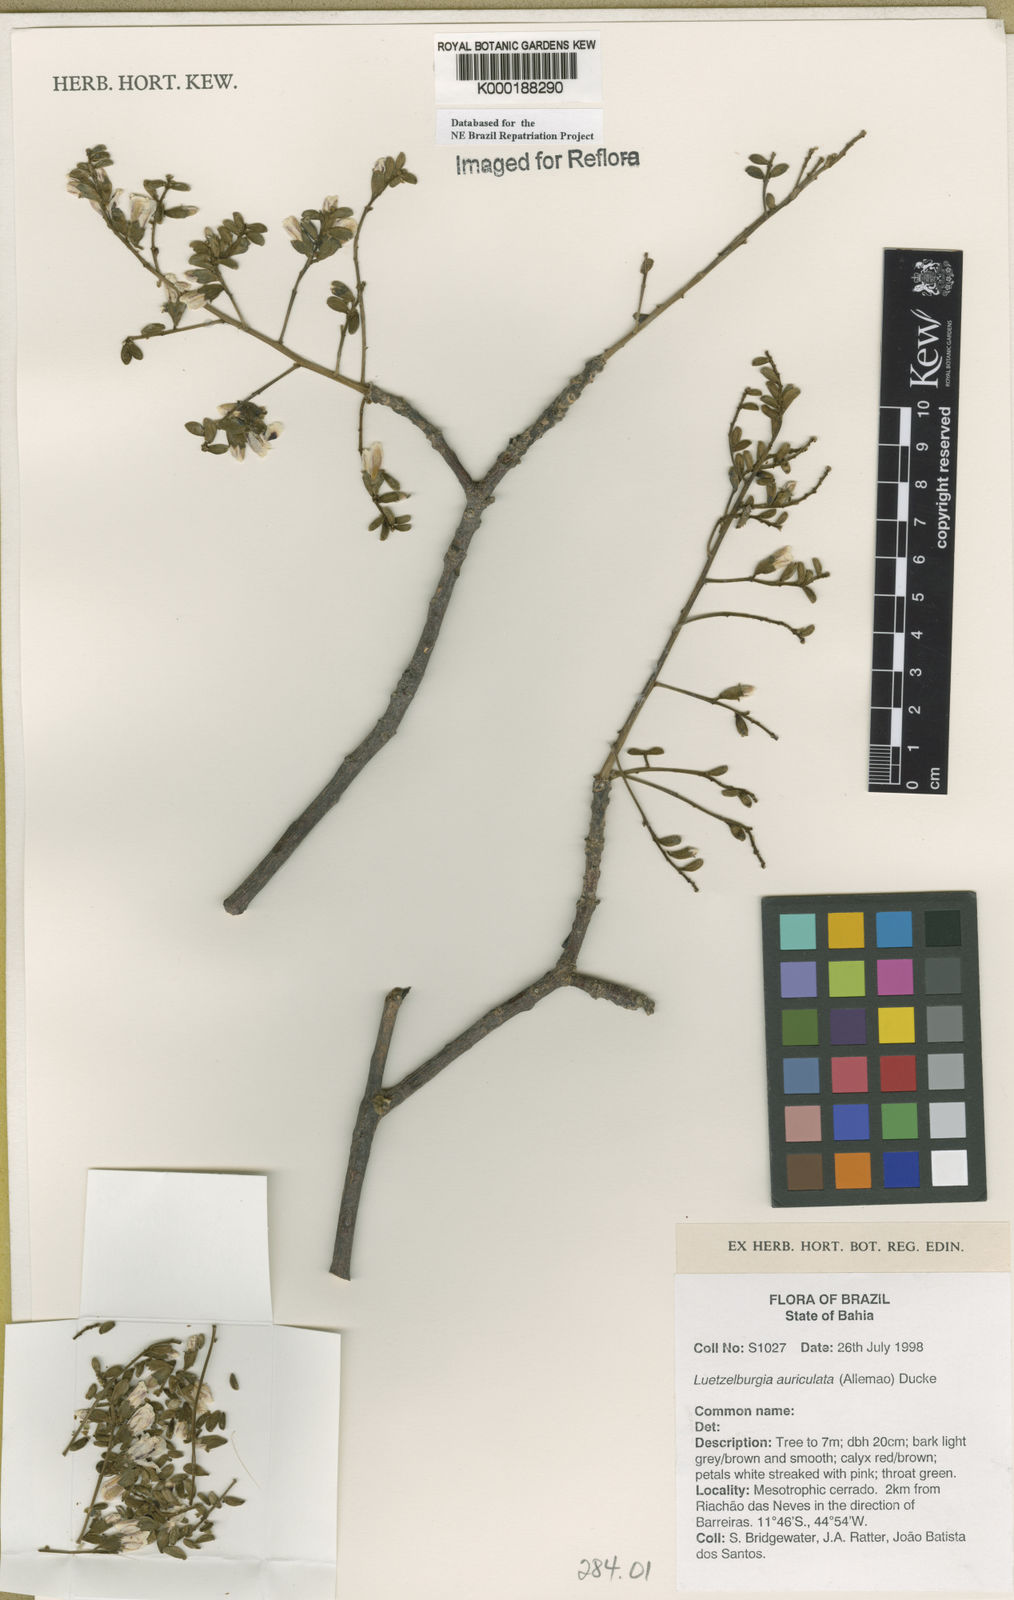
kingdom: Plantae
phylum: Tracheophyta
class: Magnoliopsida
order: Fabales
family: Fabaceae
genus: Luetzelburgia
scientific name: Luetzelburgia auriculata
